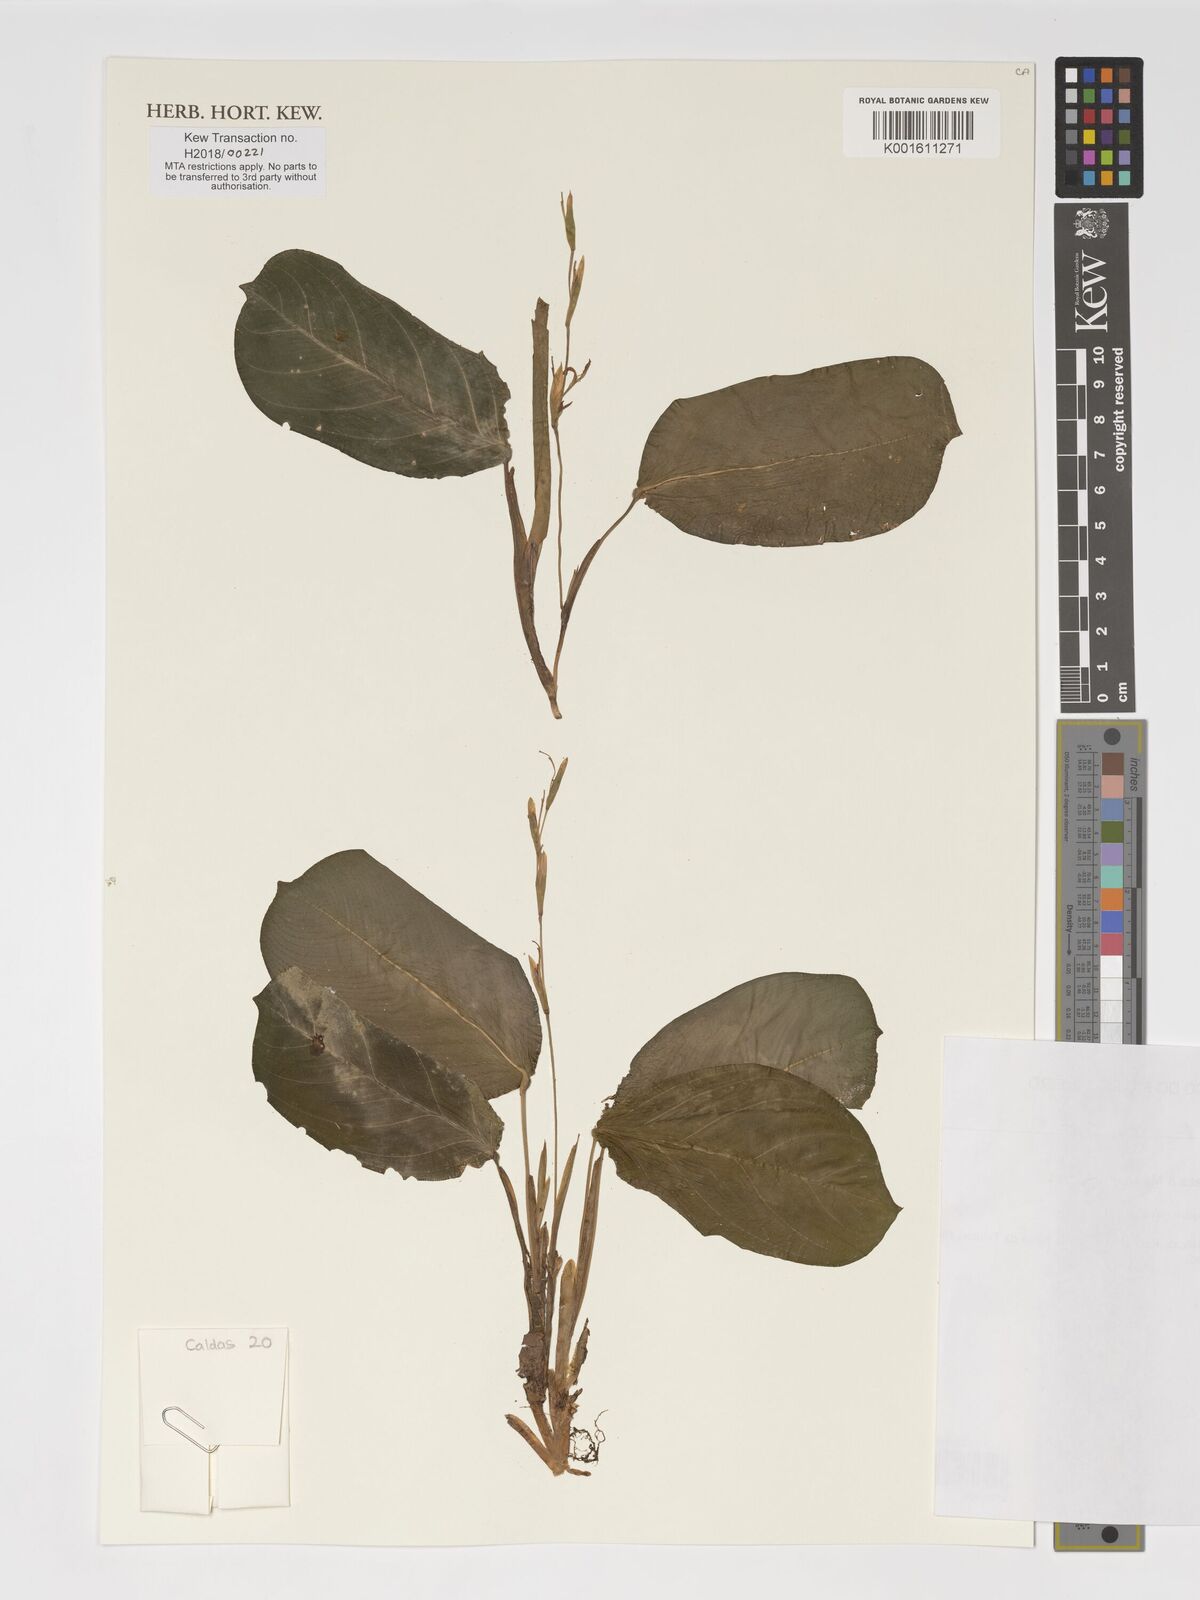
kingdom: Plantae
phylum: Tracheophyta
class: Liliopsida
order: Zingiberales
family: Marantaceae
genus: Maranta
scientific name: Maranta cristata
